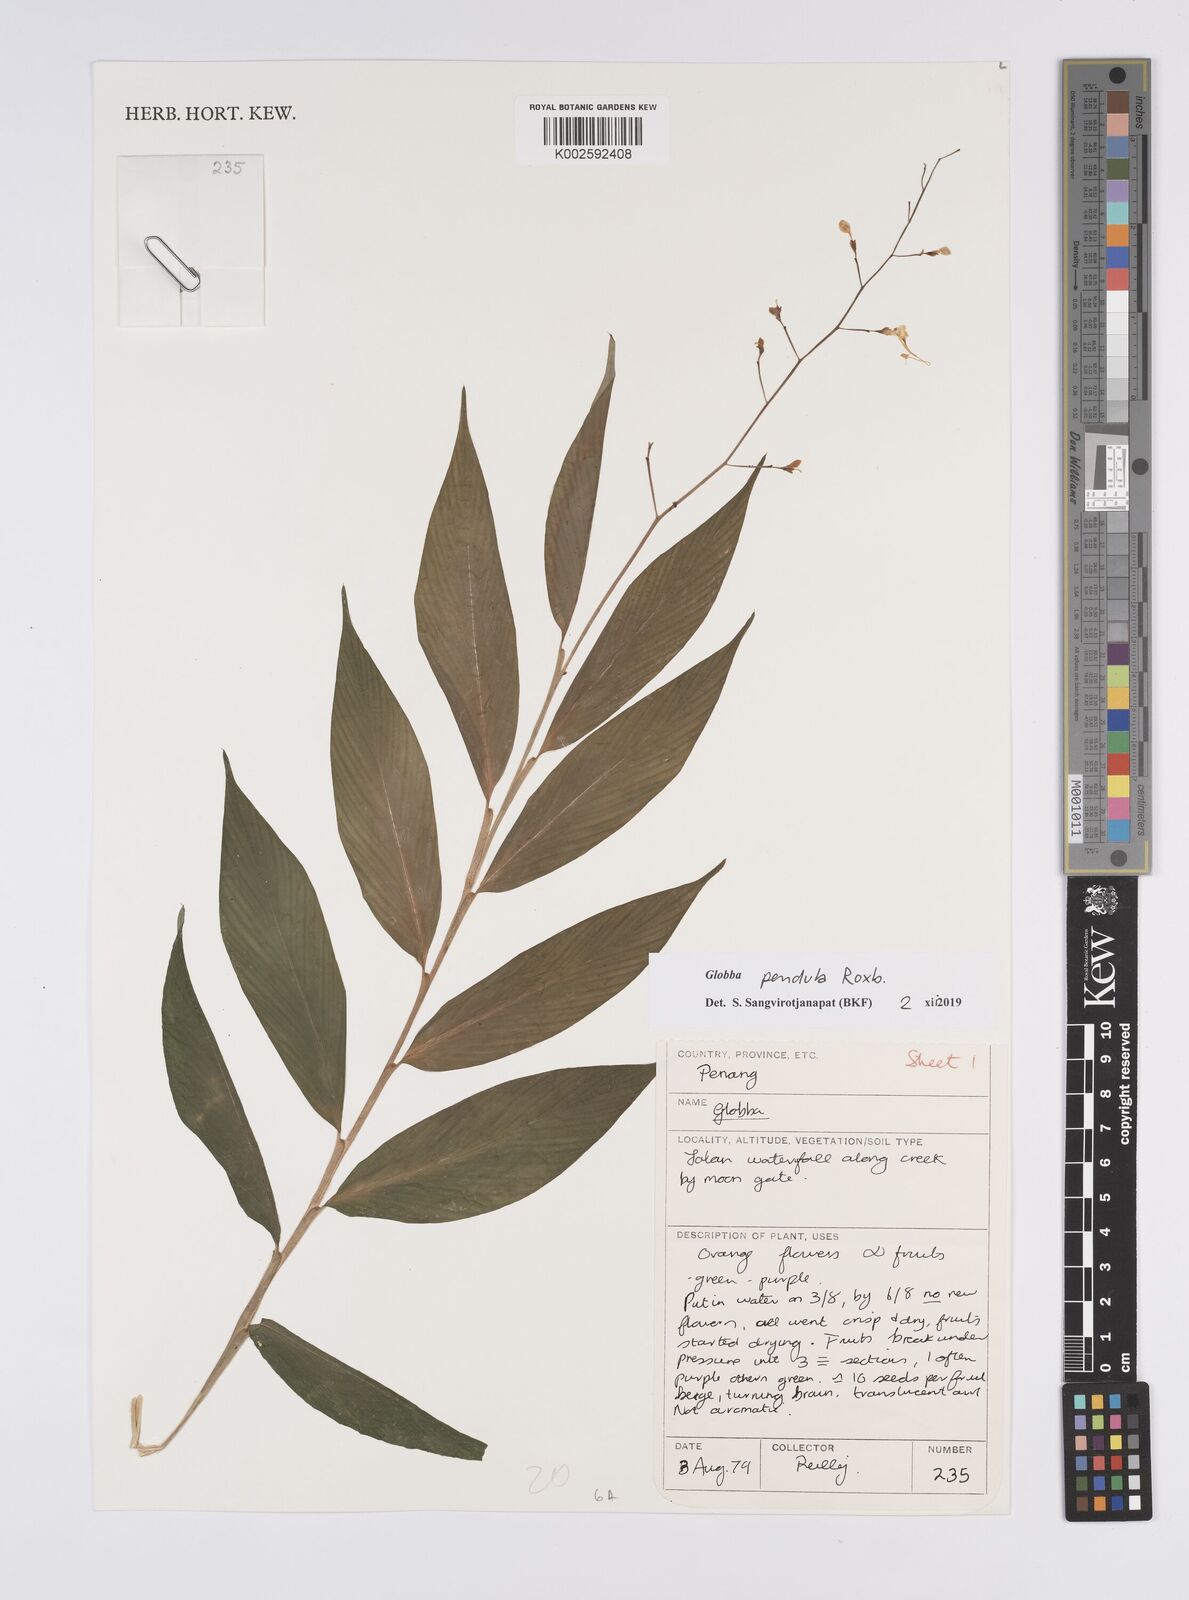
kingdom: Plantae
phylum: Tracheophyta
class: Liliopsida
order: Zingiberales
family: Zingiberaceae
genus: Globba
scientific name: Globba pendula
